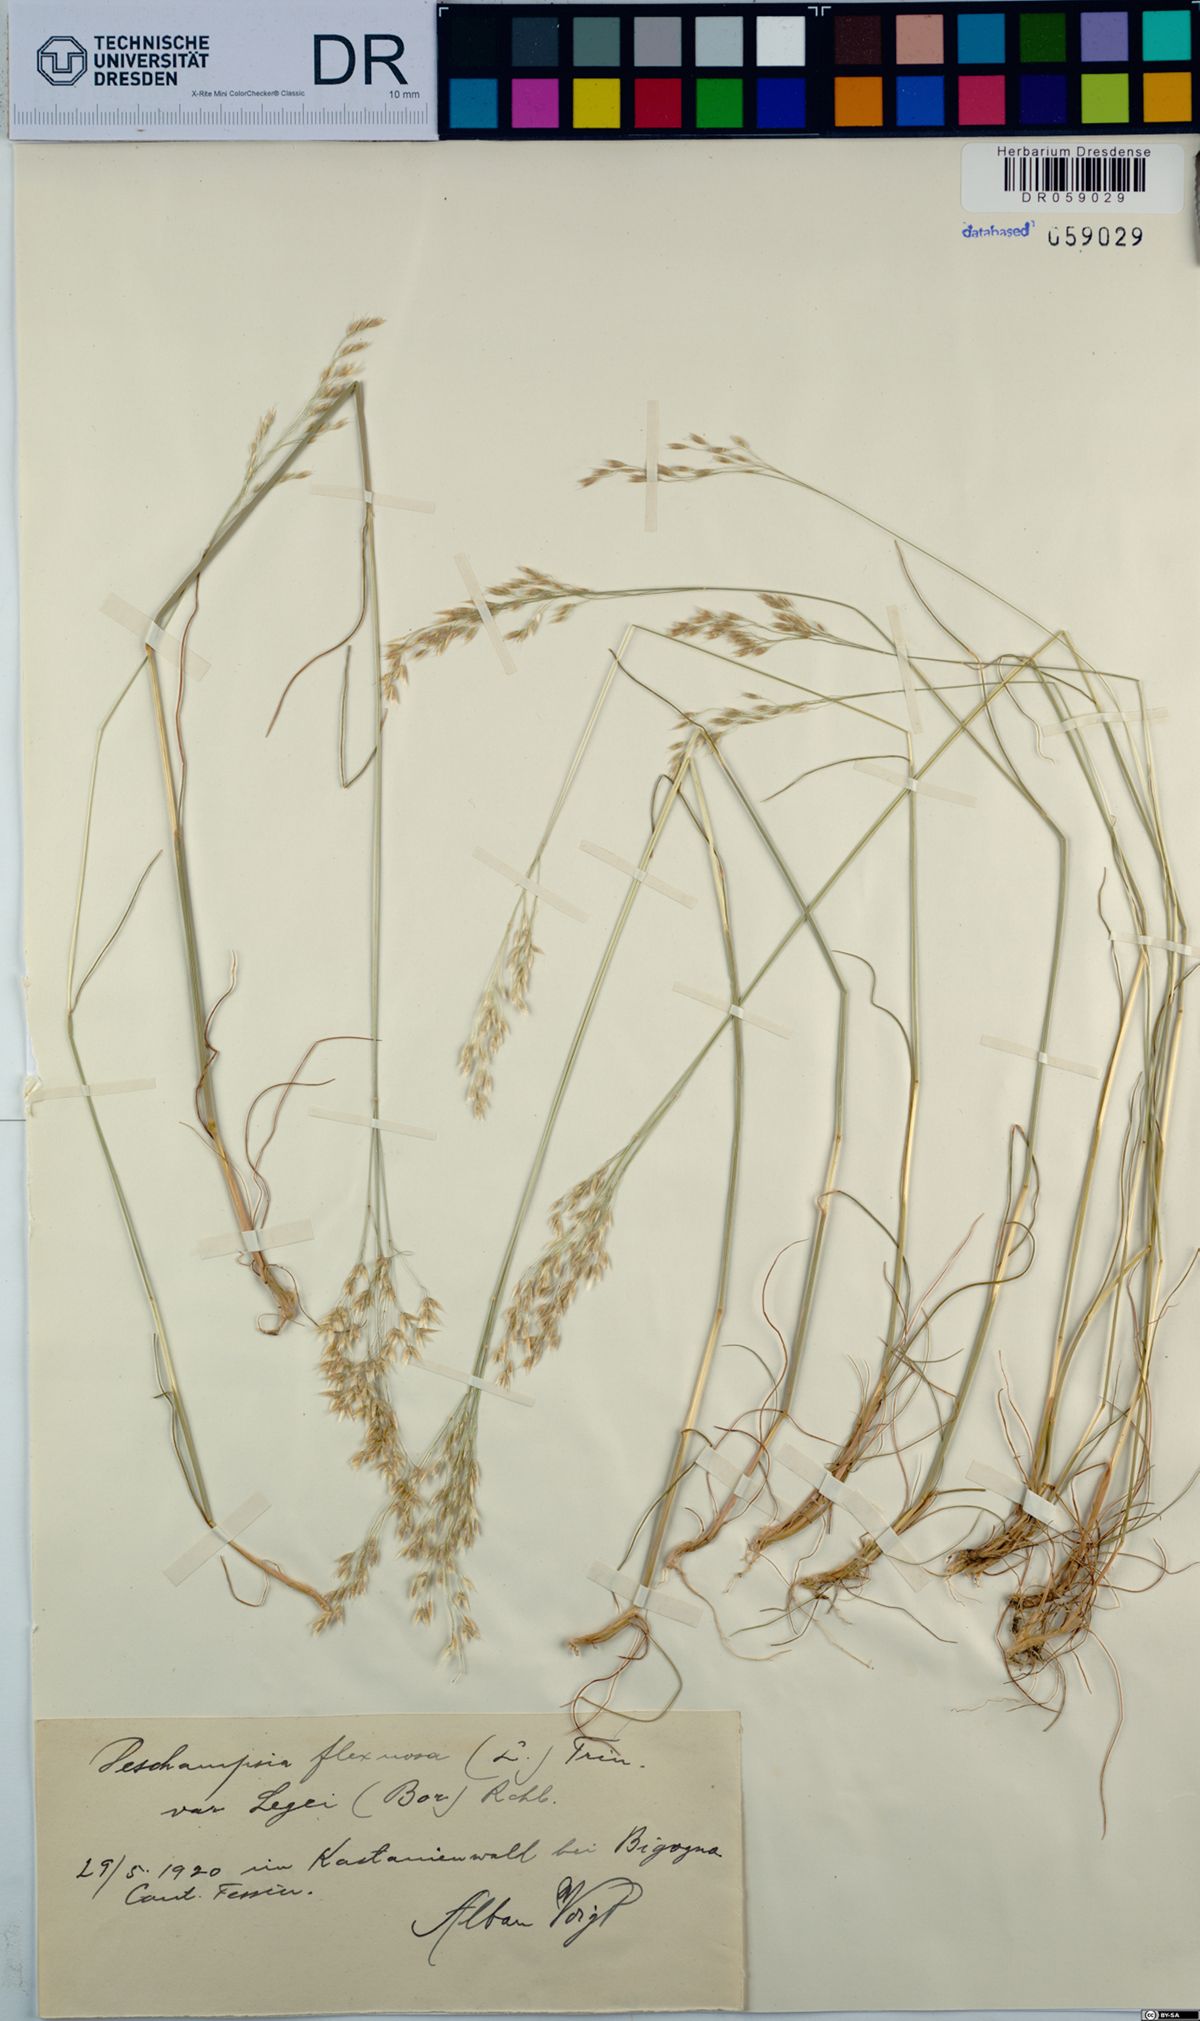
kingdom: Plantae
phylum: Tracheophyta
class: Liliopsida
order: Poales
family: Poaceae
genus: Avenella
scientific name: Avenella flexuosa
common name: Wavy hairgrass
